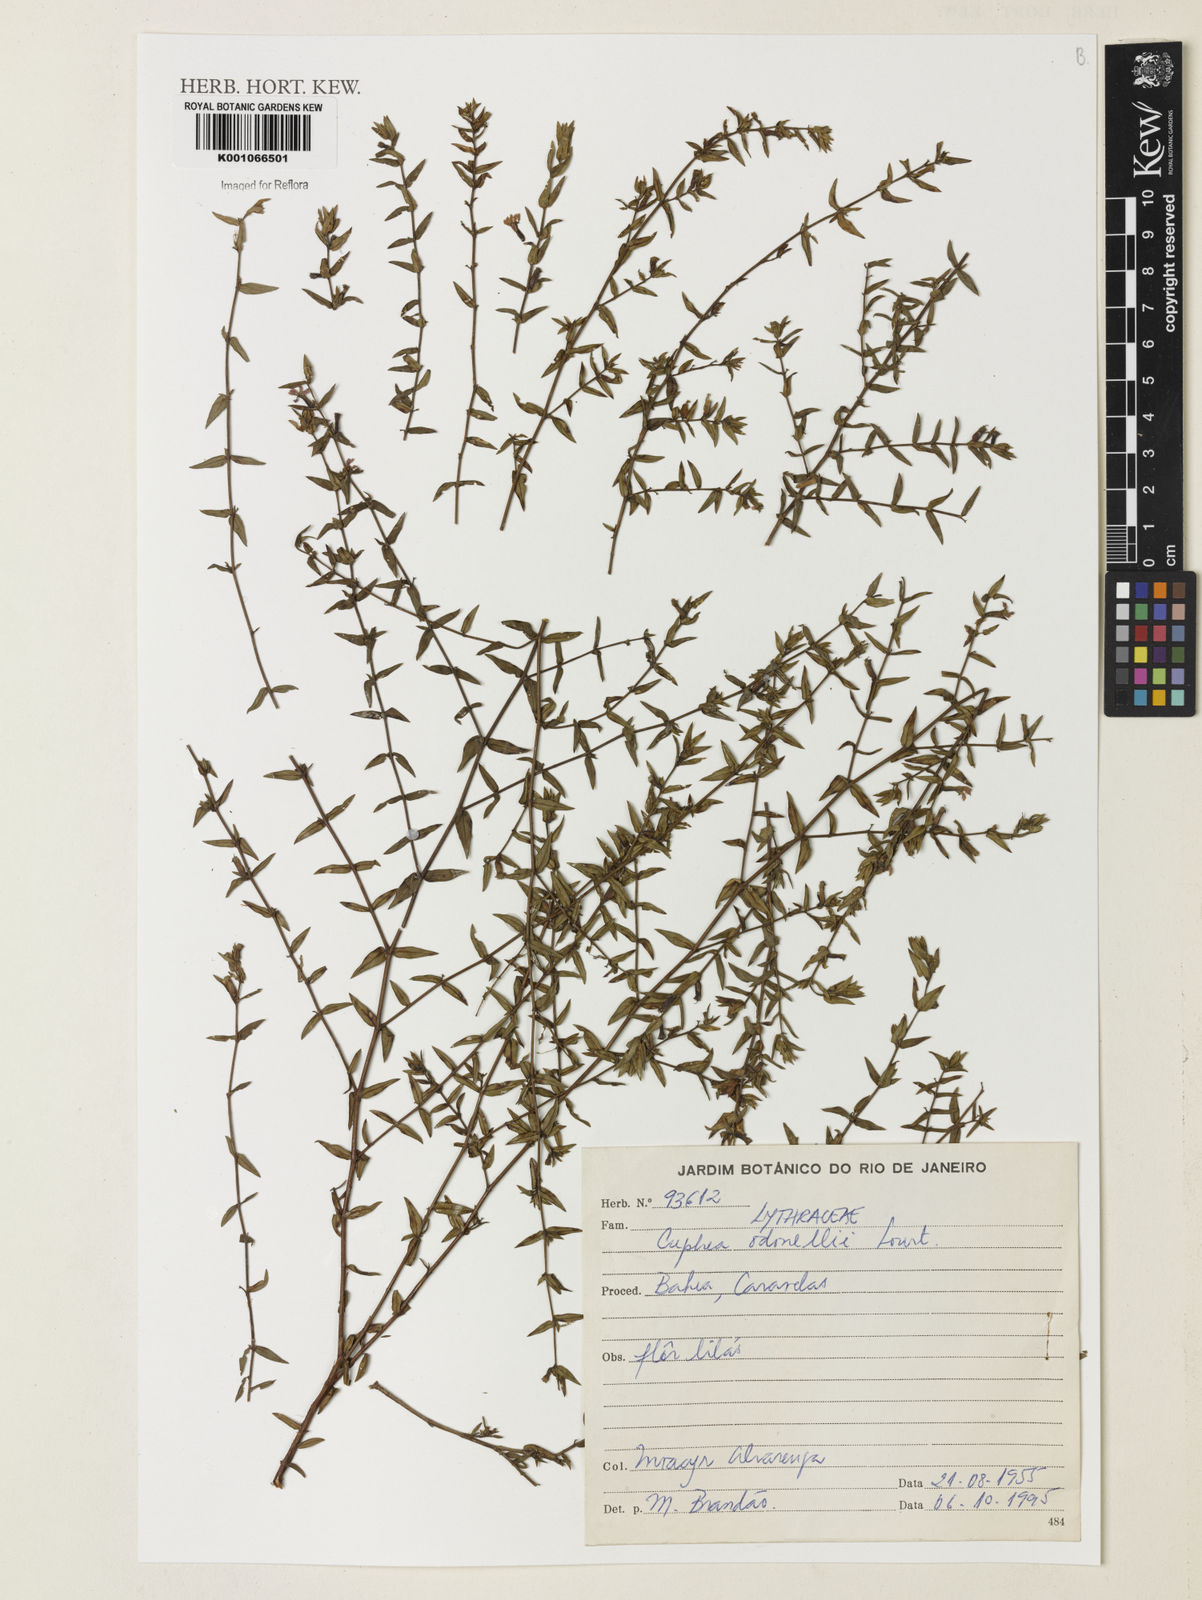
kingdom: Plantae
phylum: Tracheophyta
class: Magnoliopsida
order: Myrtales
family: Lythraceae
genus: Cuphea
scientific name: Cuphea odonellii
